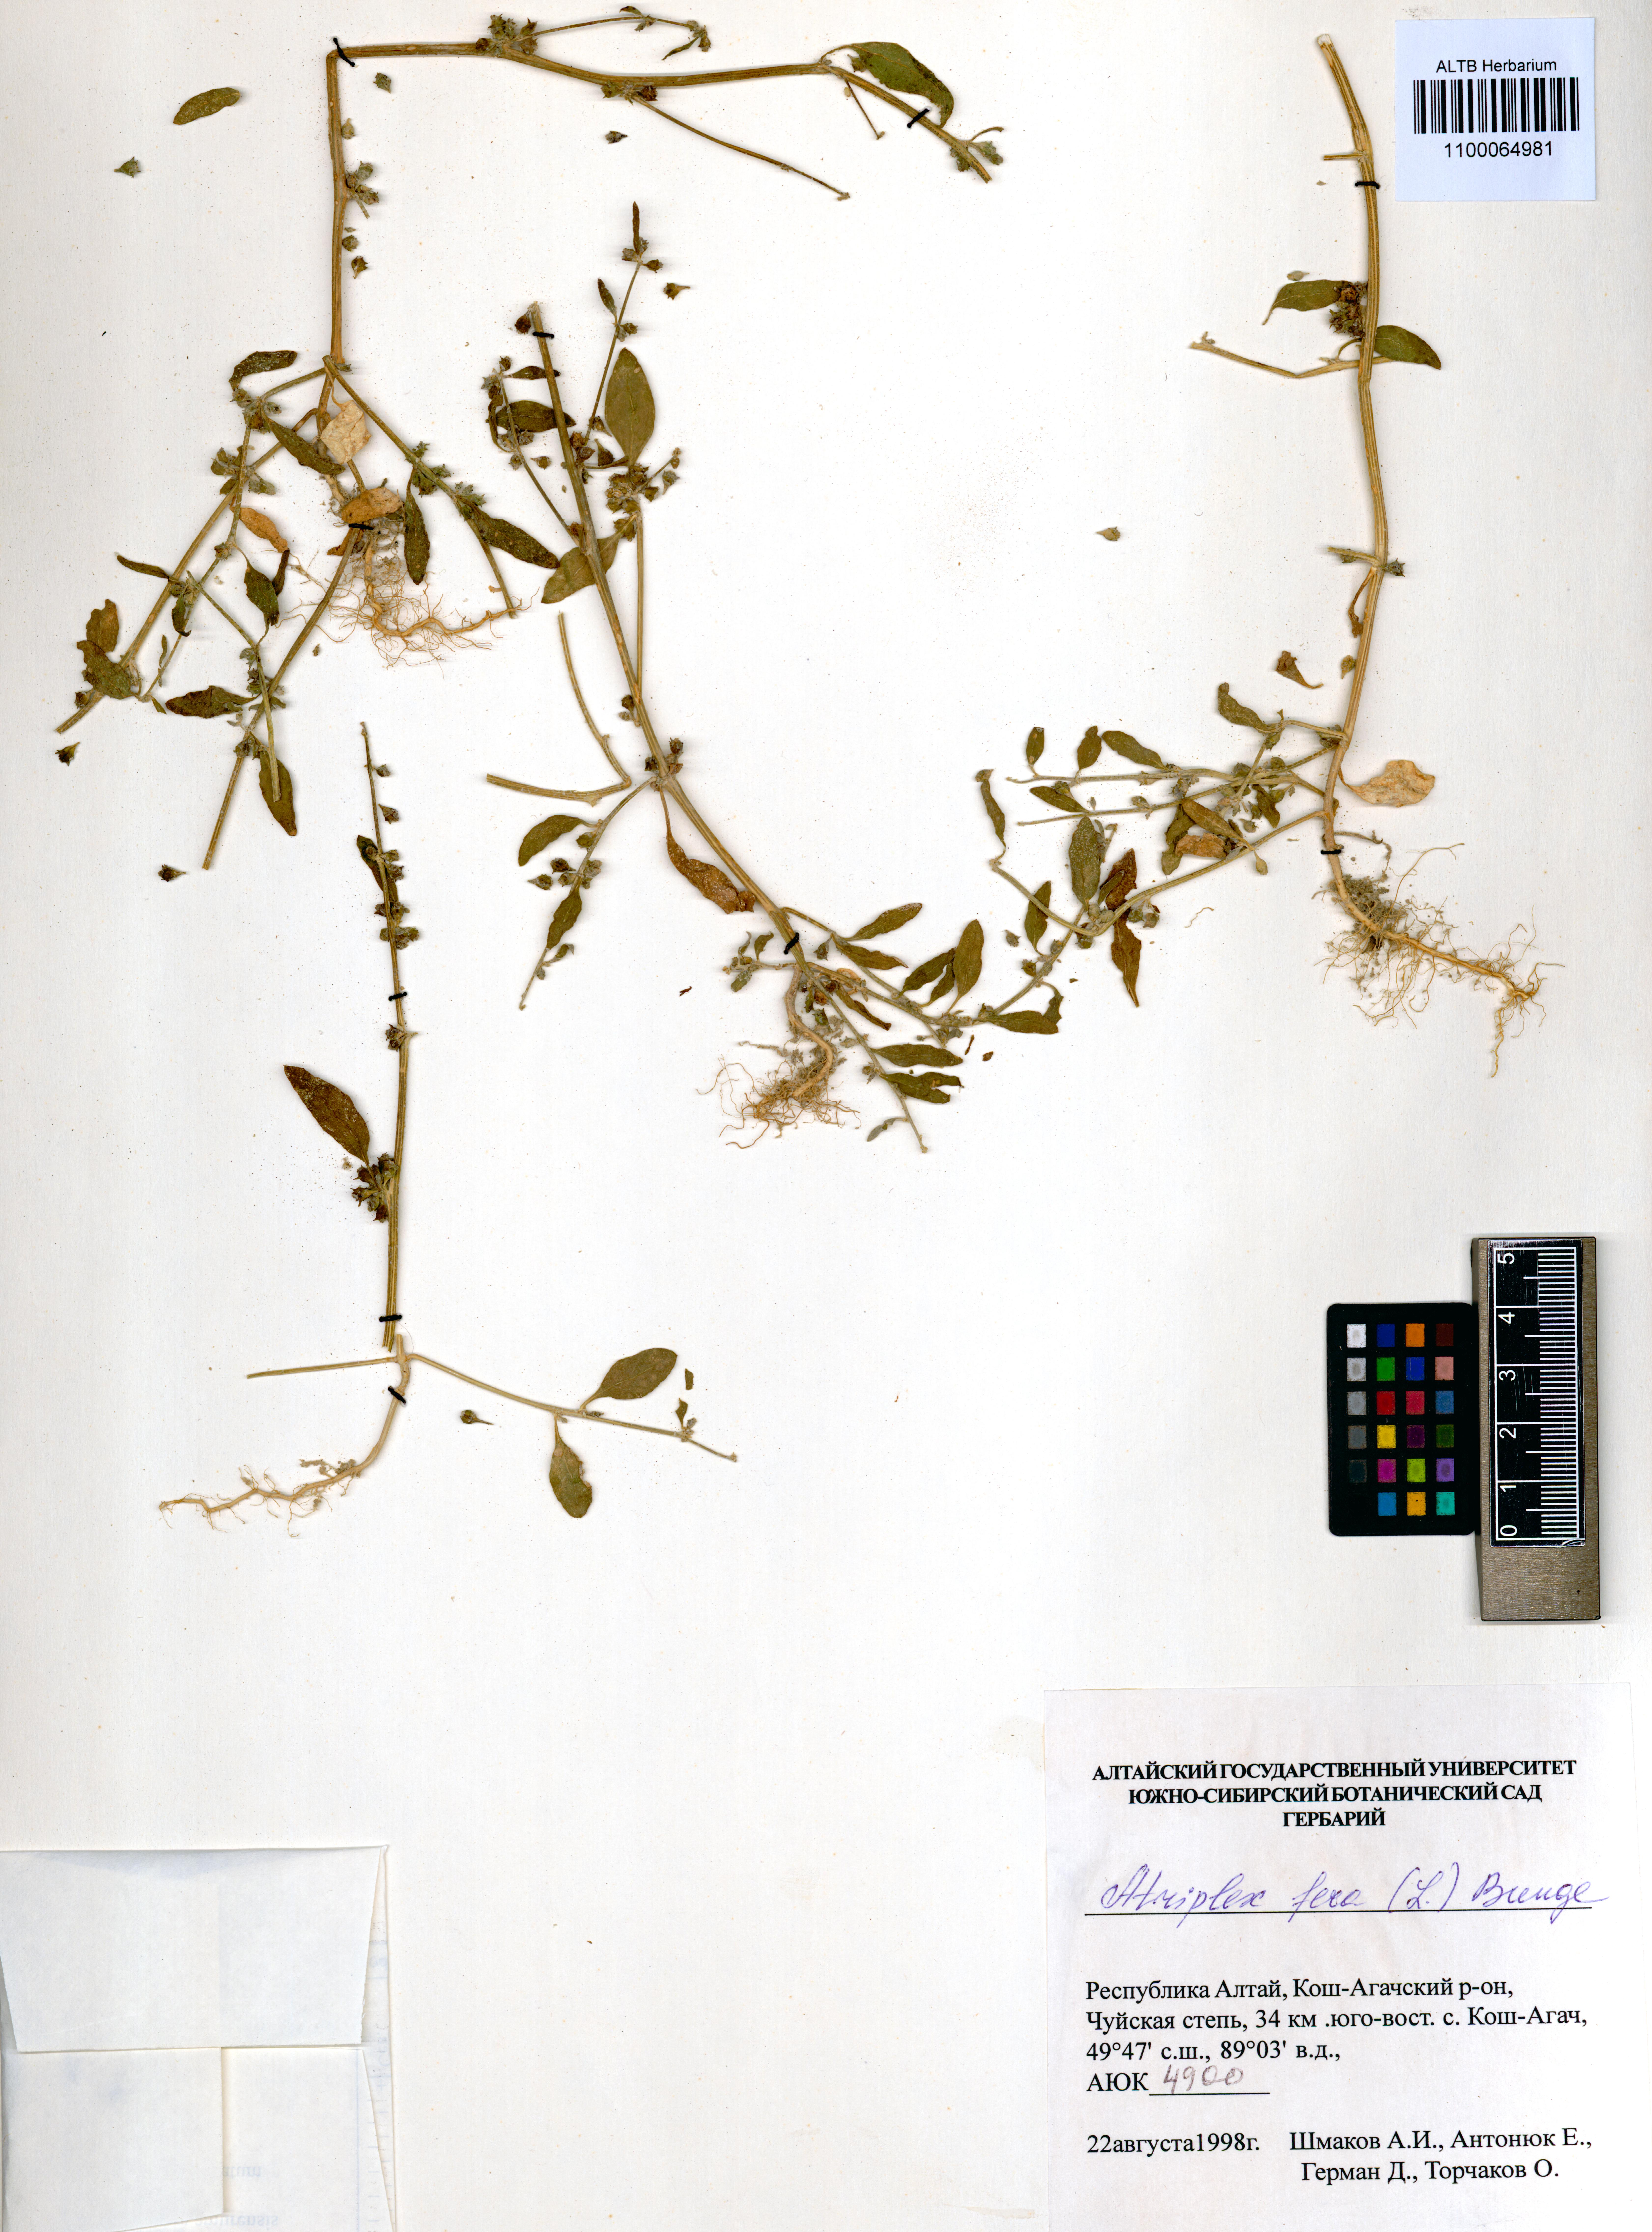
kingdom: Plantae
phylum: Tracheophyta
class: Magnoliopsida
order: Caryophyllales
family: Amaranthaceae
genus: Atriplex
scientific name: Atriplex fera
